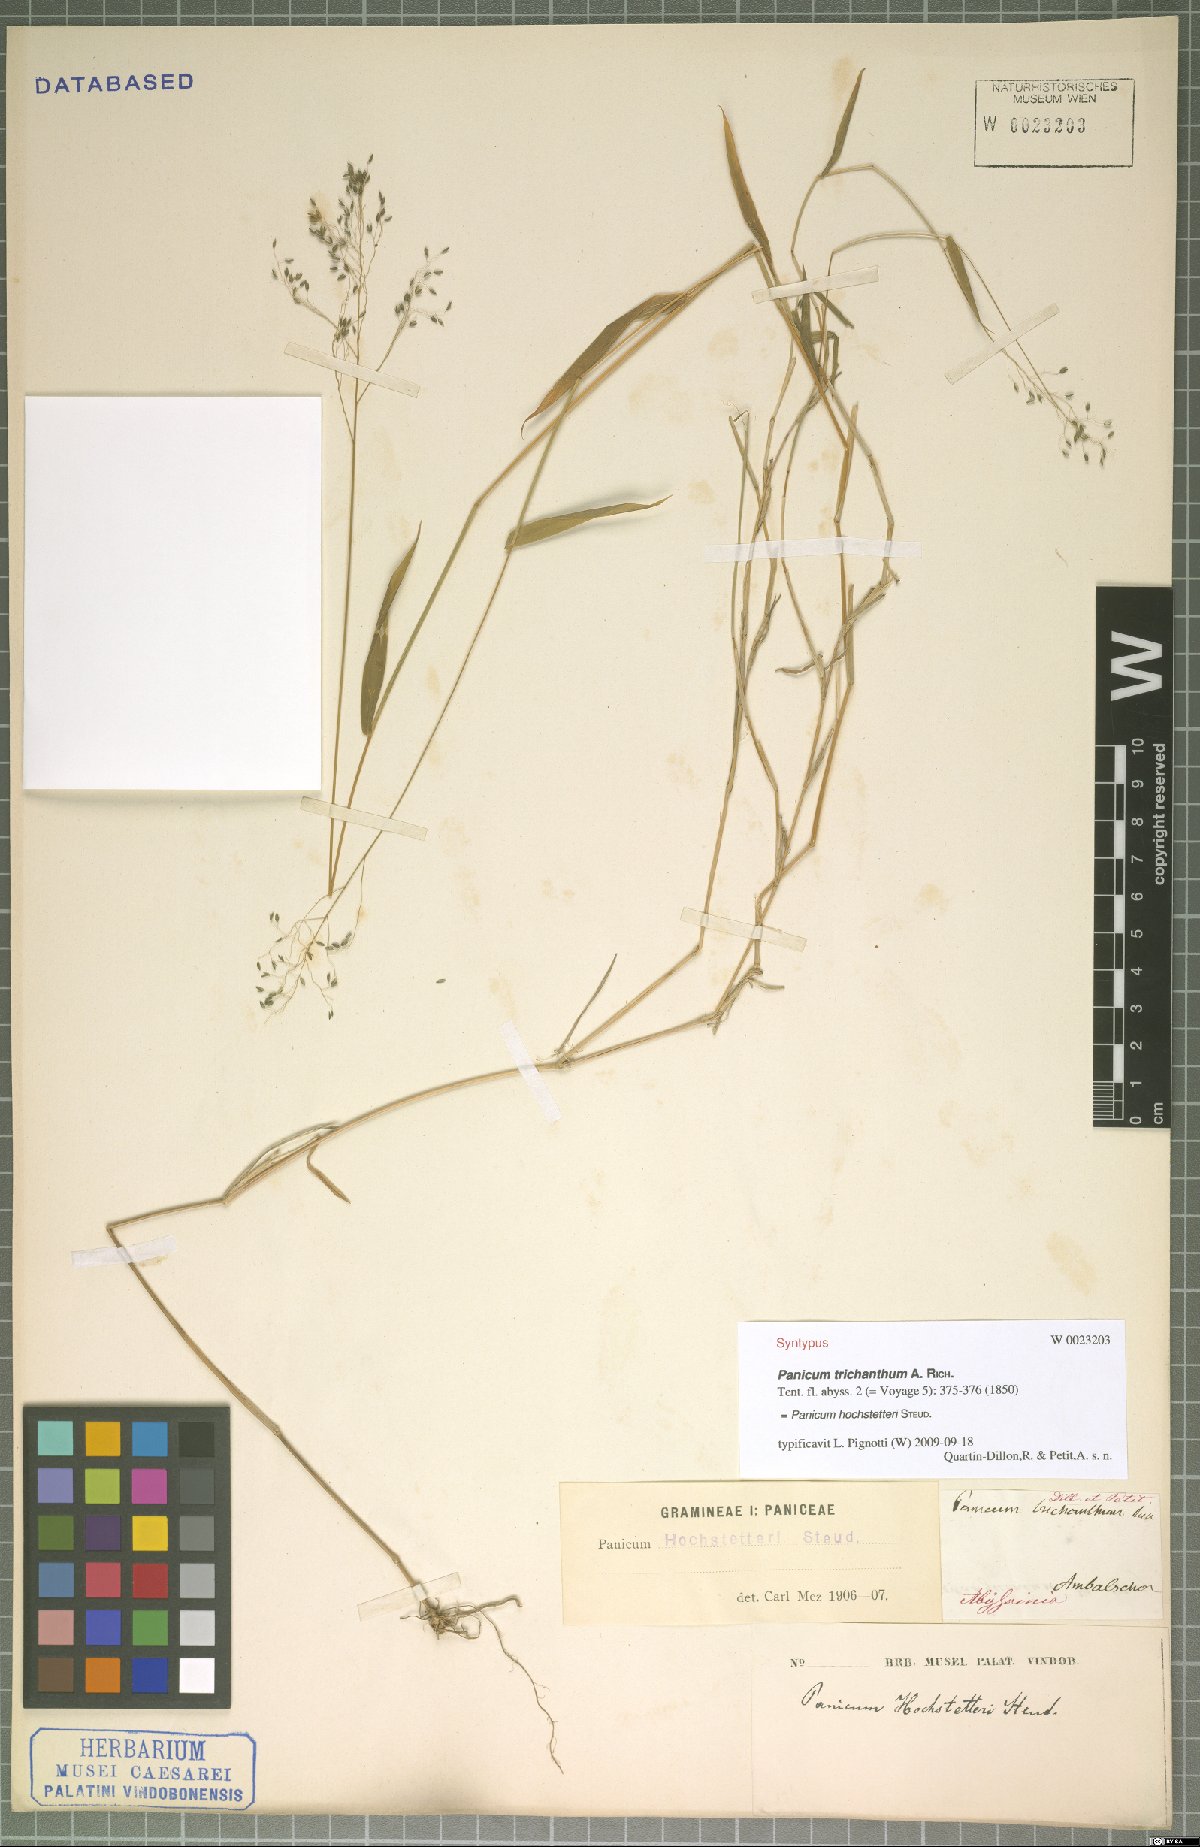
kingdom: Plantae
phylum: Tracheophyta
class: Liliopsida
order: Poales
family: Poaceae
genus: Panicum
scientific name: Panicum hochstetteri
